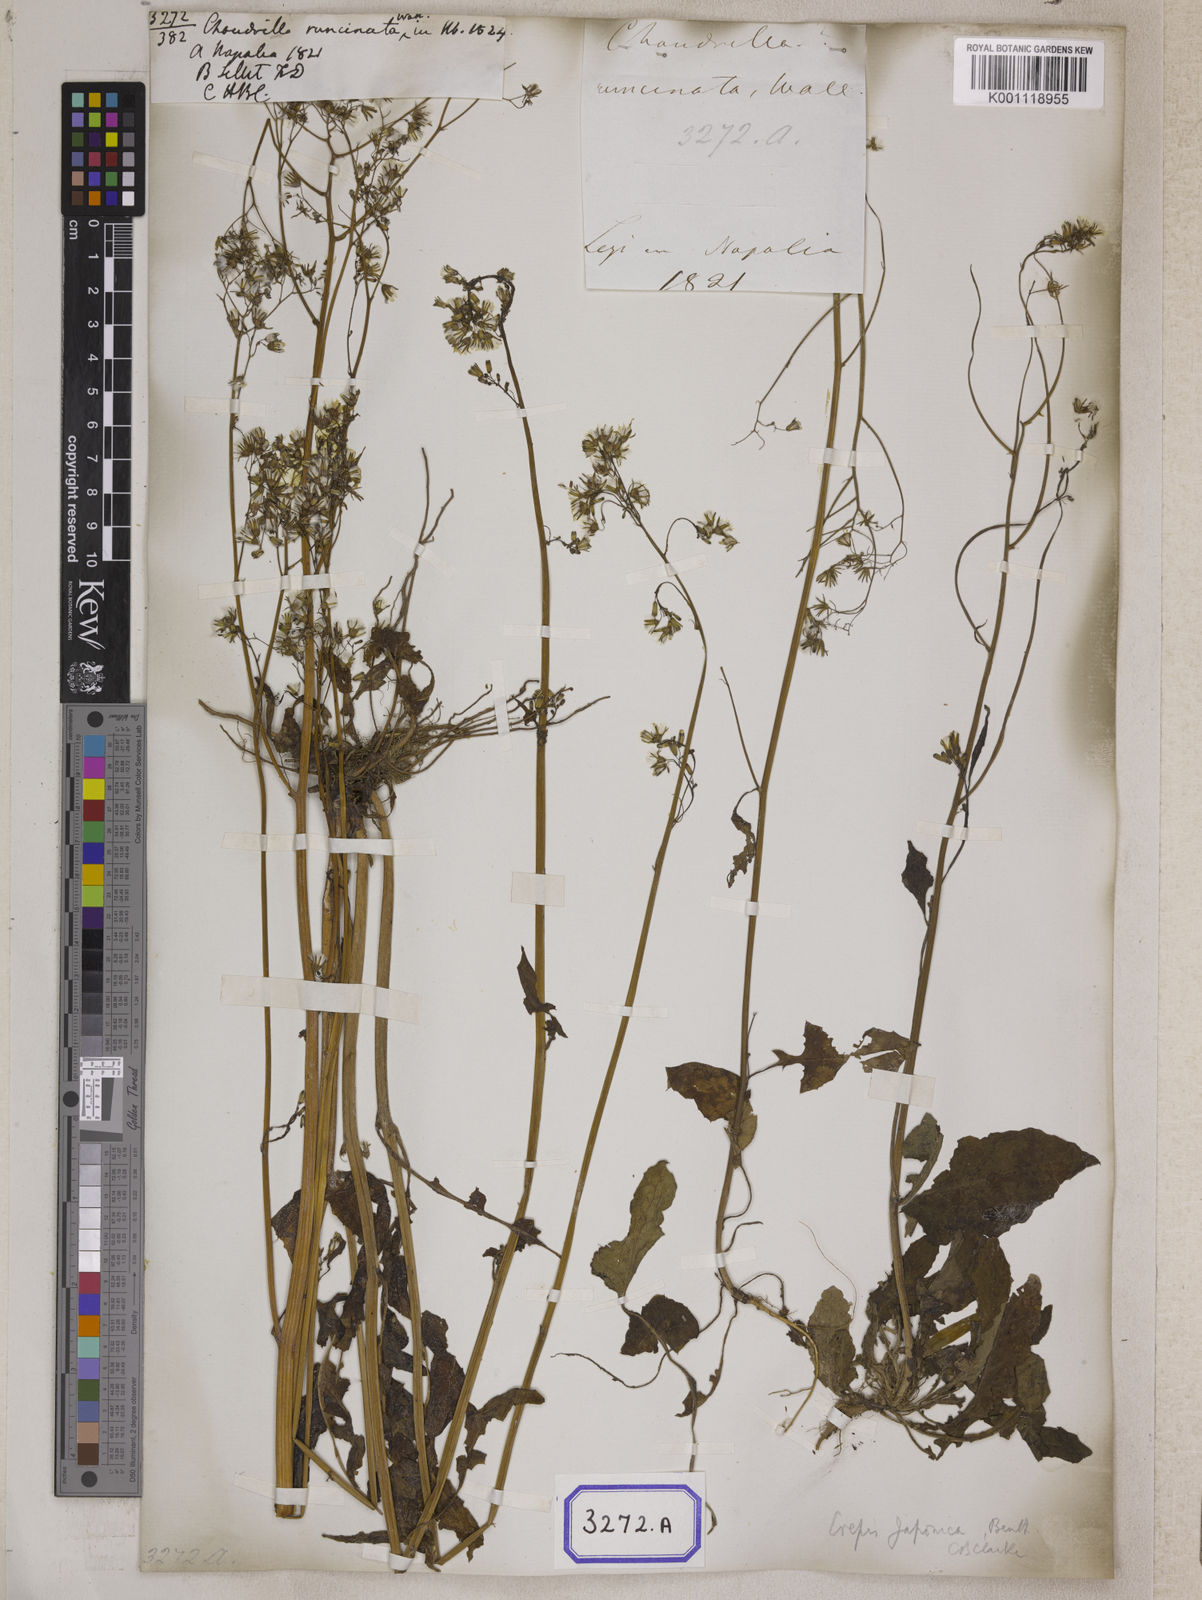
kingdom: Plantae
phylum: Tracheophyta
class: Magnoliopsida
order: Asterales
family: Asteraceae
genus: Youngia
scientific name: Youngia japonica
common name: Oriental false hawksbeard
